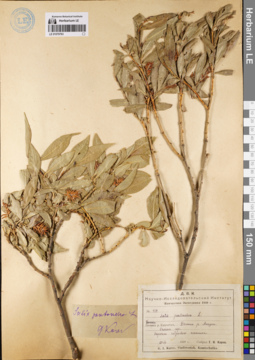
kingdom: Plantae
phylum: Tracheophyta
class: Magnoliopsida
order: Malpighiales
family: Salicaceae
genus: Salix
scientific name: Salix pseudopentandra
